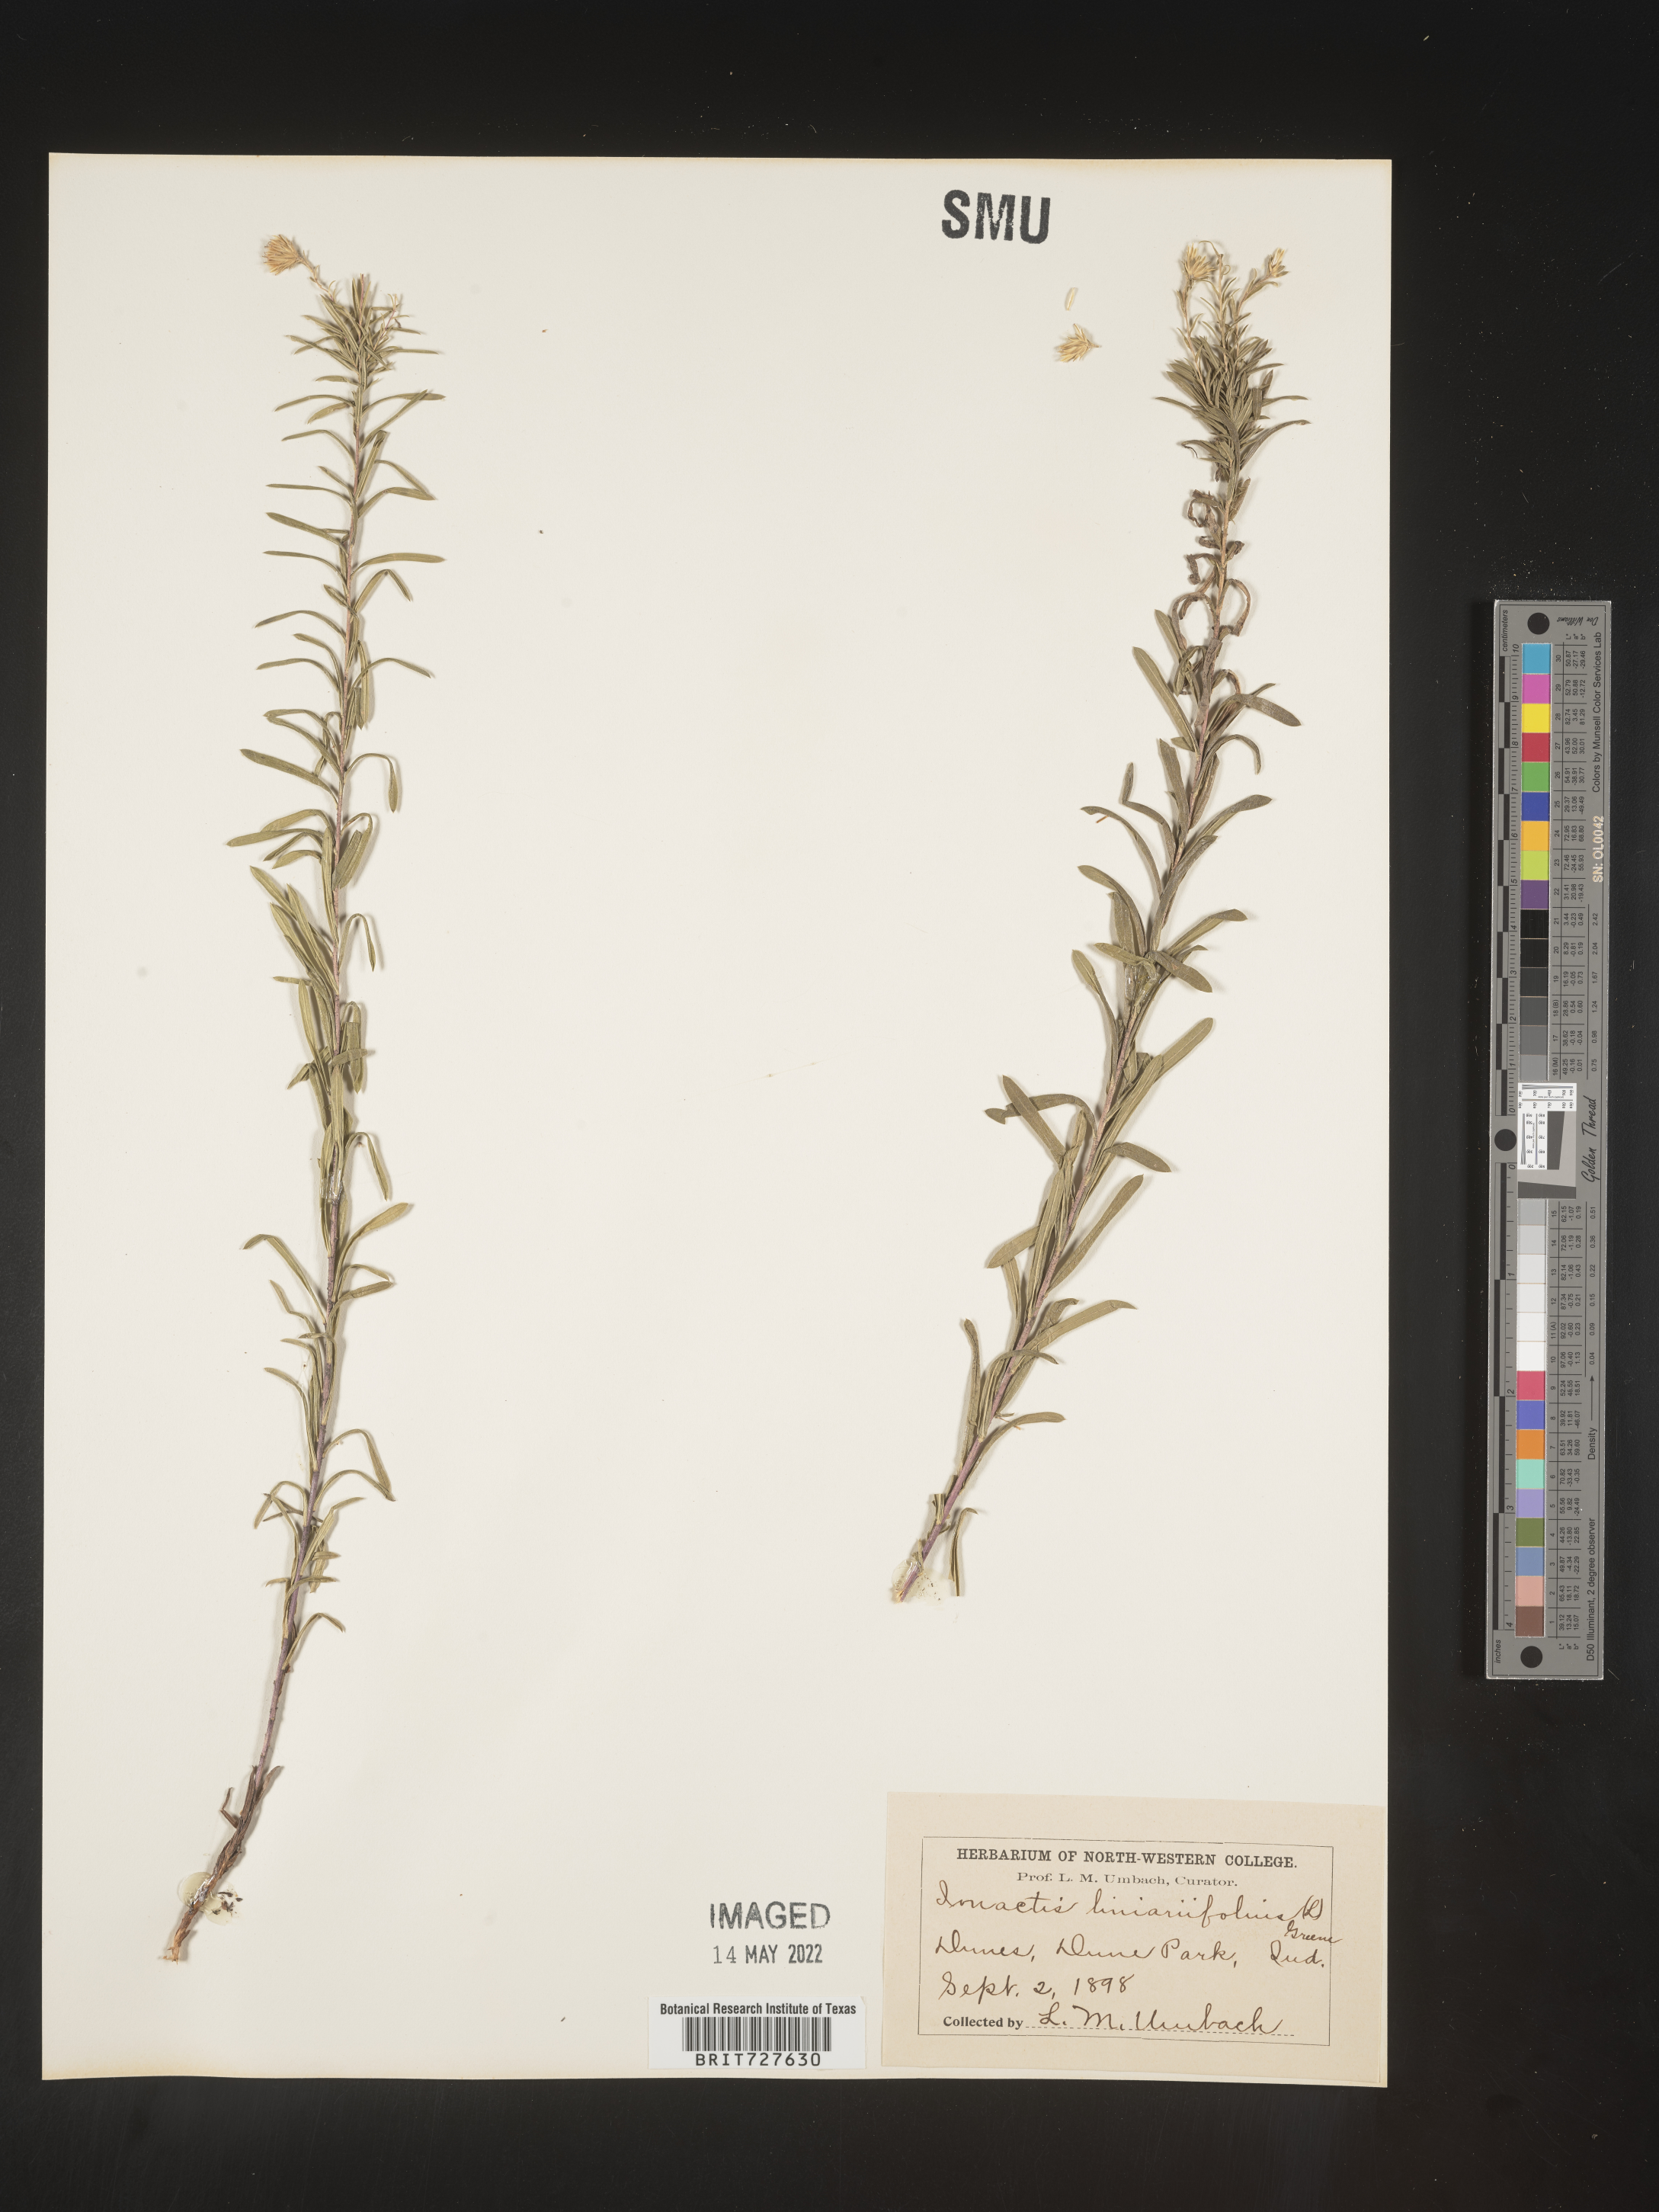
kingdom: Plantae
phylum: Tracheophyta
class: Magnoliopsida
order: Asterales
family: Asteraceae
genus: Ionactis
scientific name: Ionactis linariifolia
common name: Flax-leaf aster
